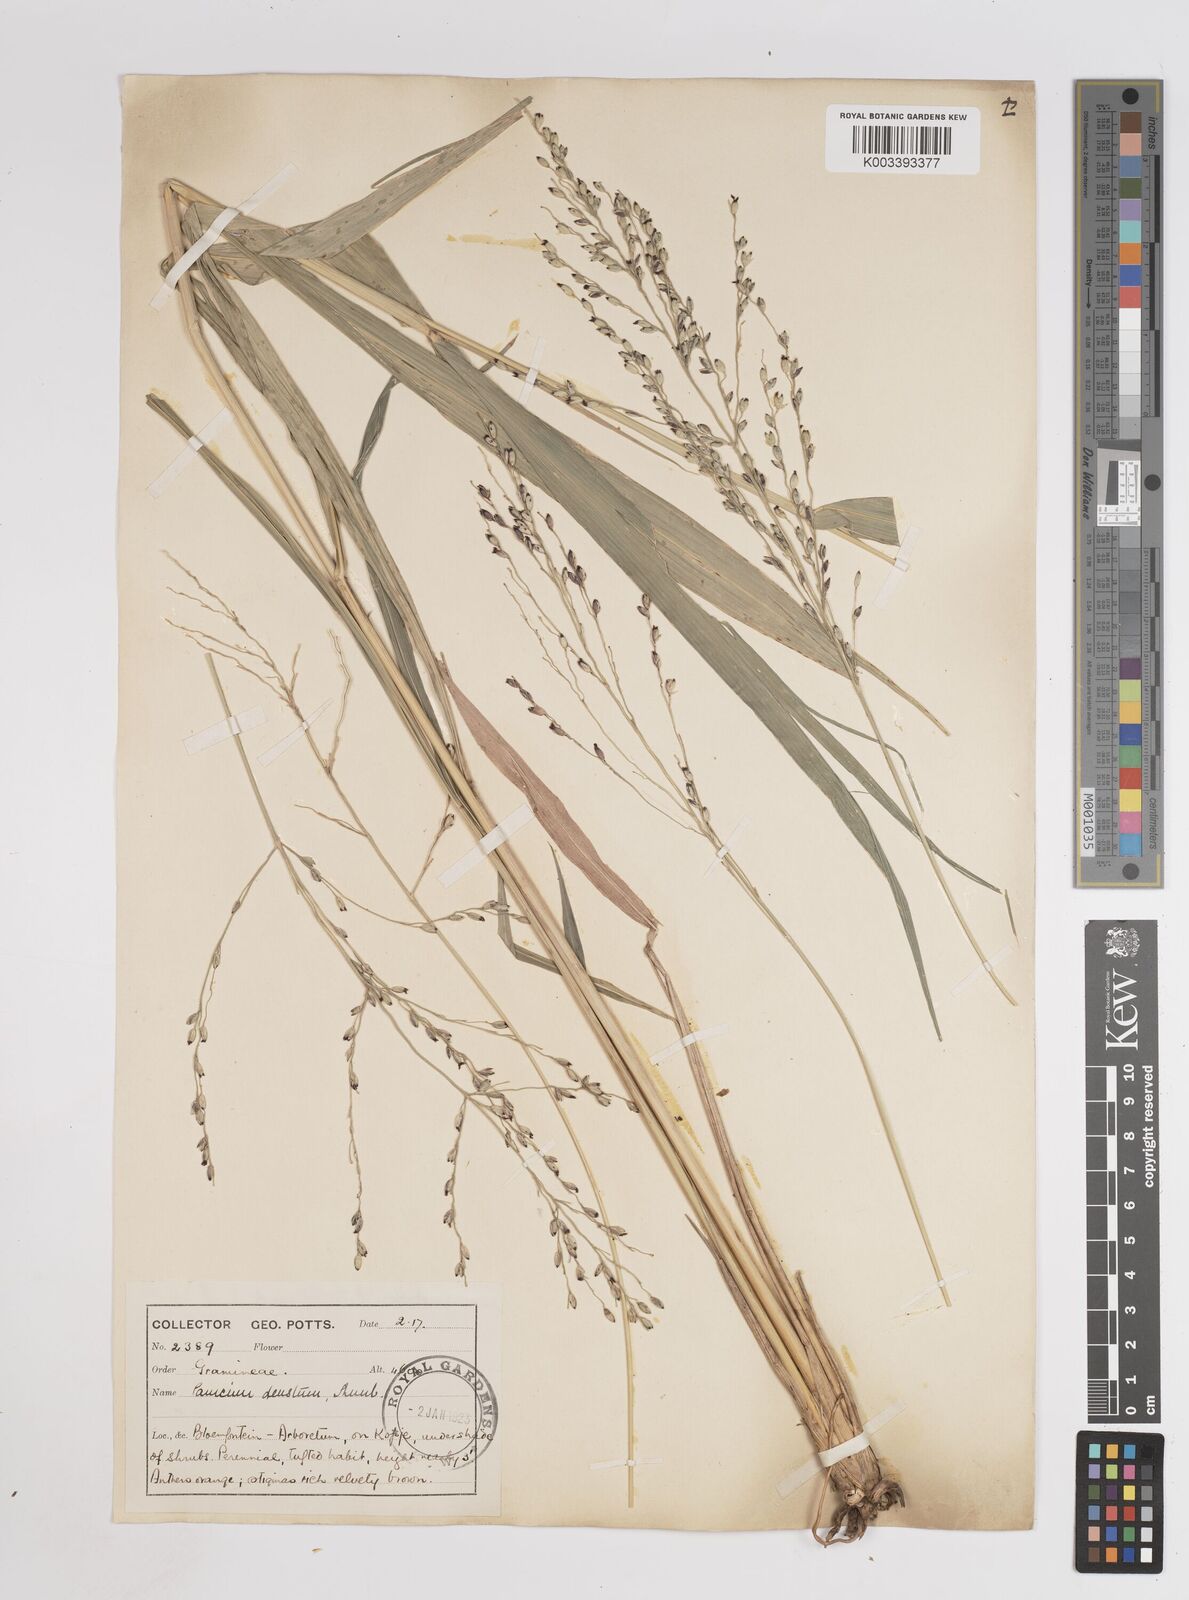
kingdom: Plantae
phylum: Tracheophyta
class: Liliopsida
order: Poales
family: Poaceae
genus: Dichanthelium
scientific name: Dichanthelium dichotomum
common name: Cypress panicgrass
